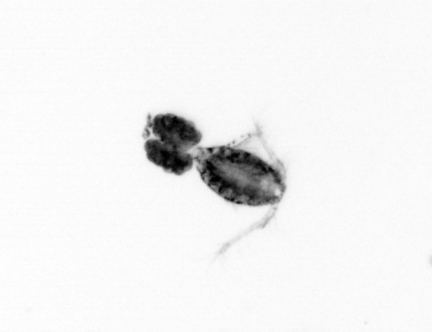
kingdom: Animalia
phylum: Arthropoda
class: Copepoda
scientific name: Copepoda
